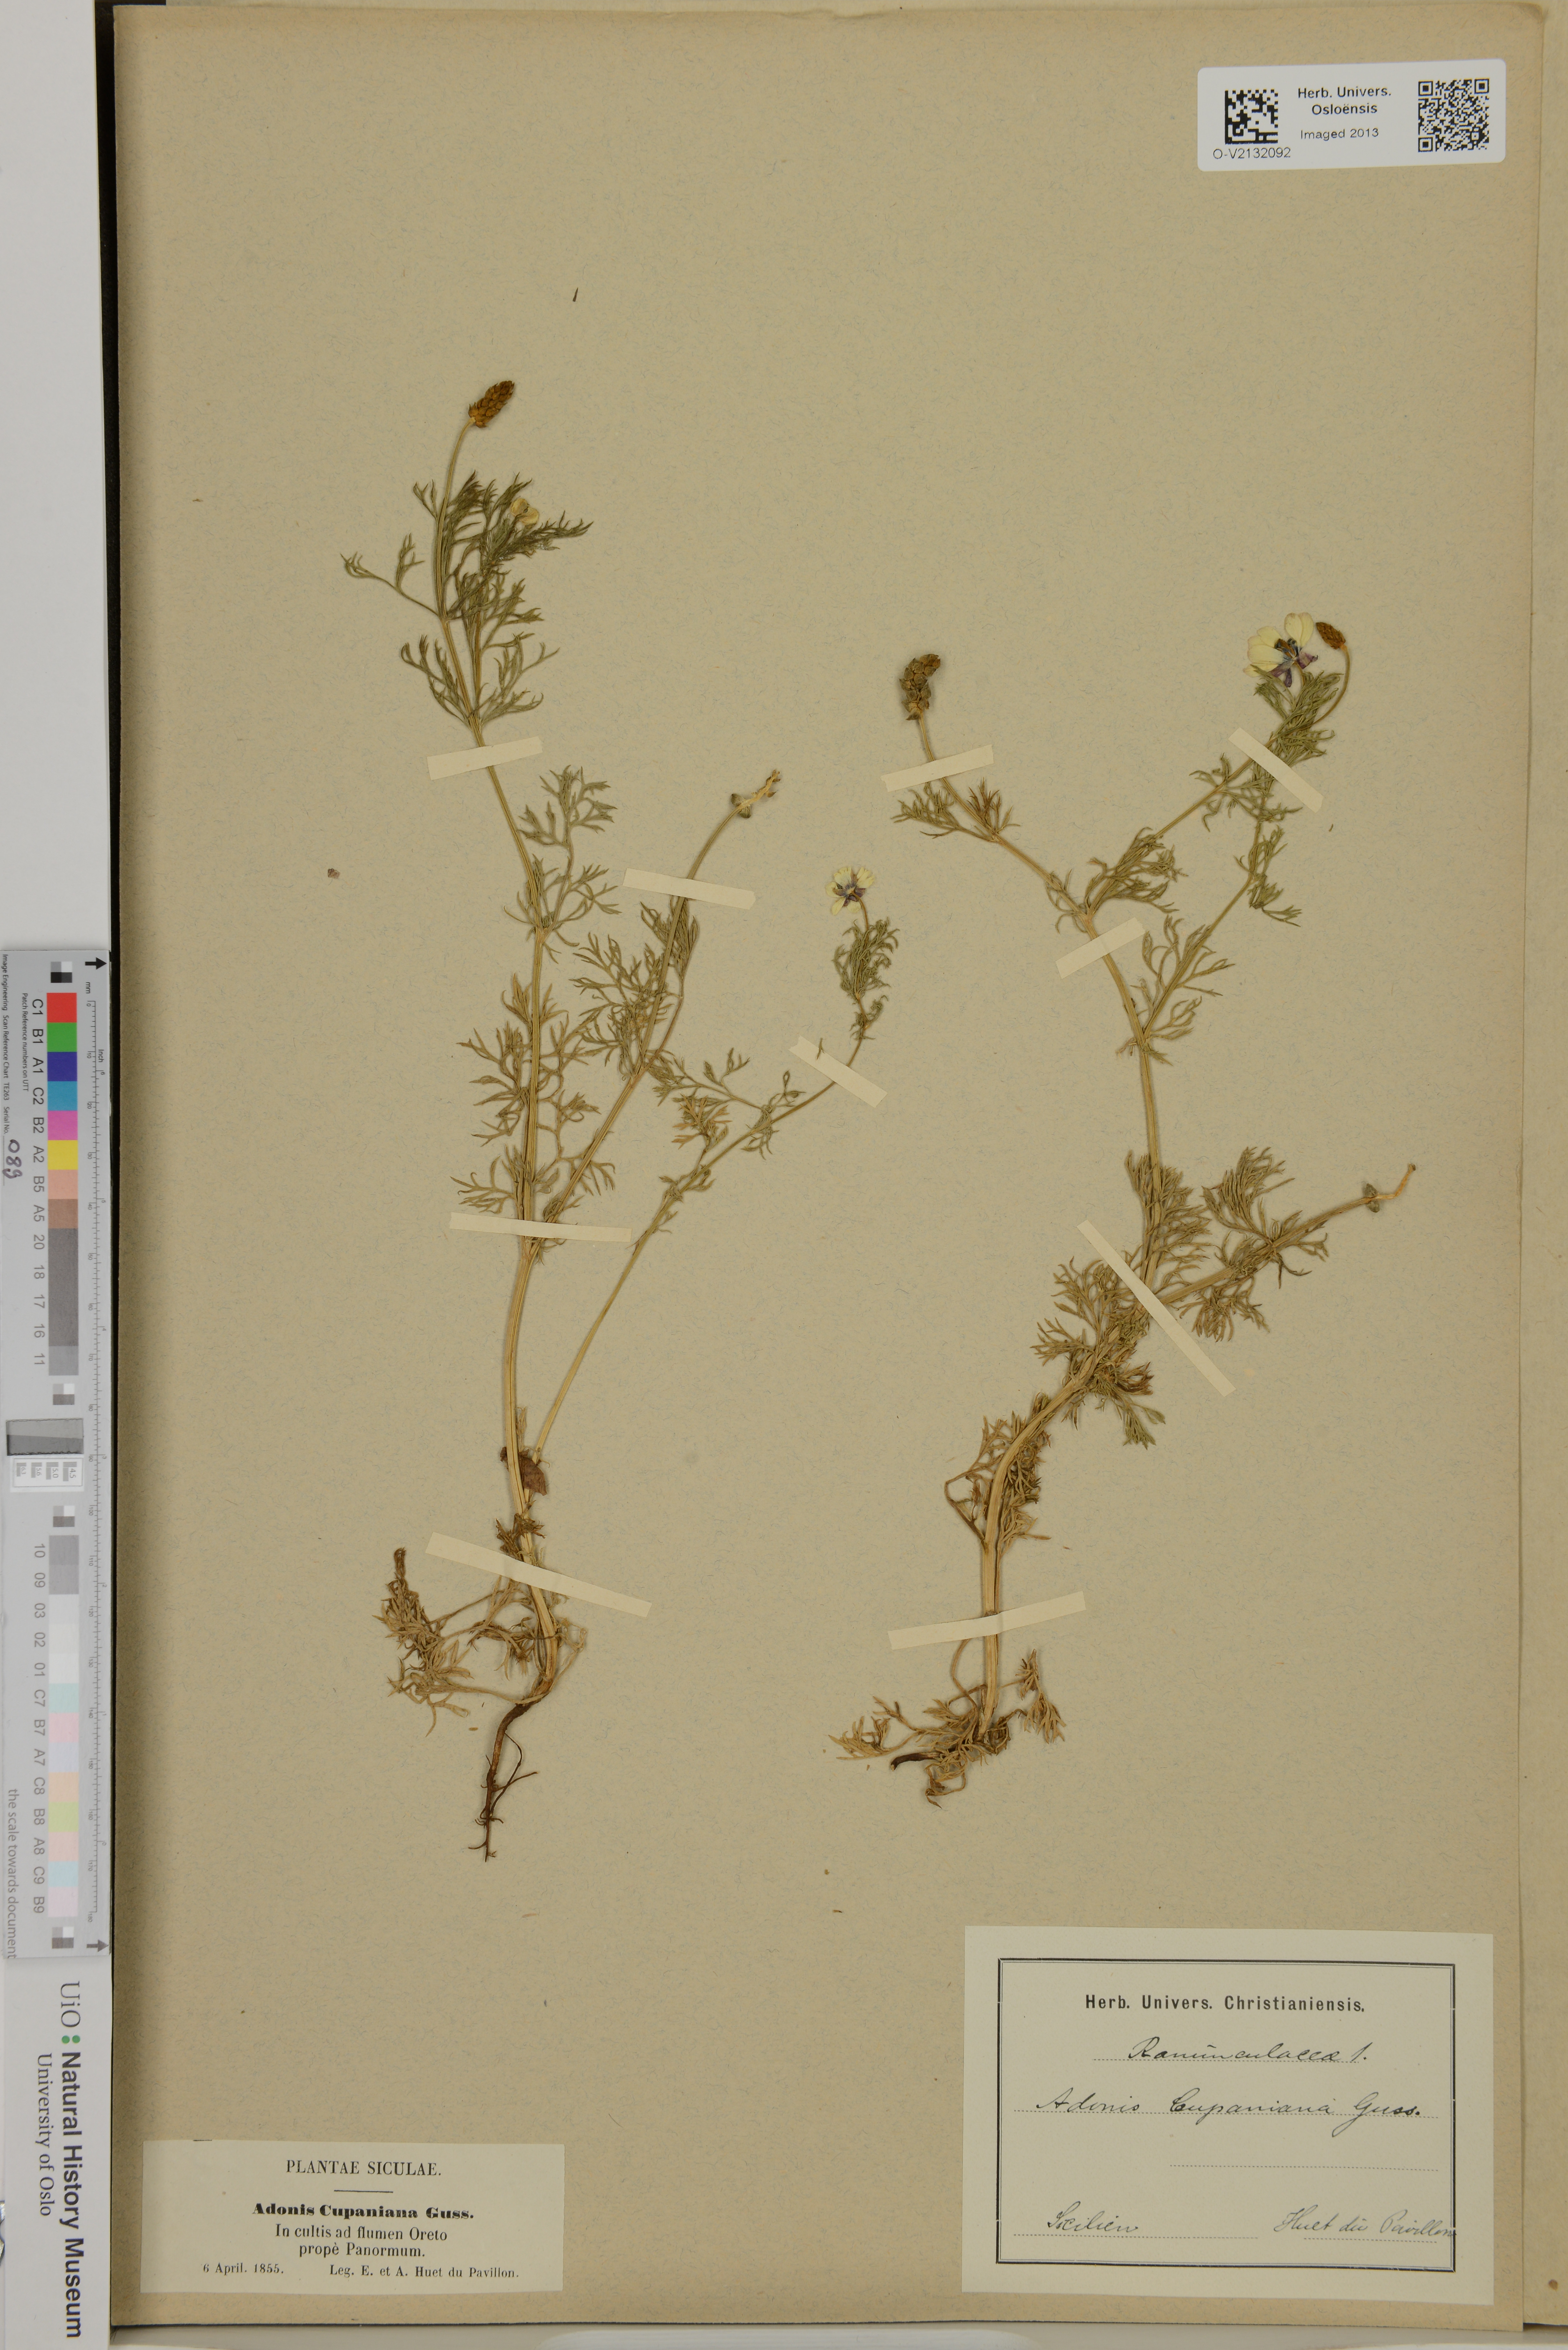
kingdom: Plantae
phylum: Tracheophyta
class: Magnoliopsida
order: Ranunculales
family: Ranunculaceae
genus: Adonis
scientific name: Adonis annua
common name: Pheasant's-eye
